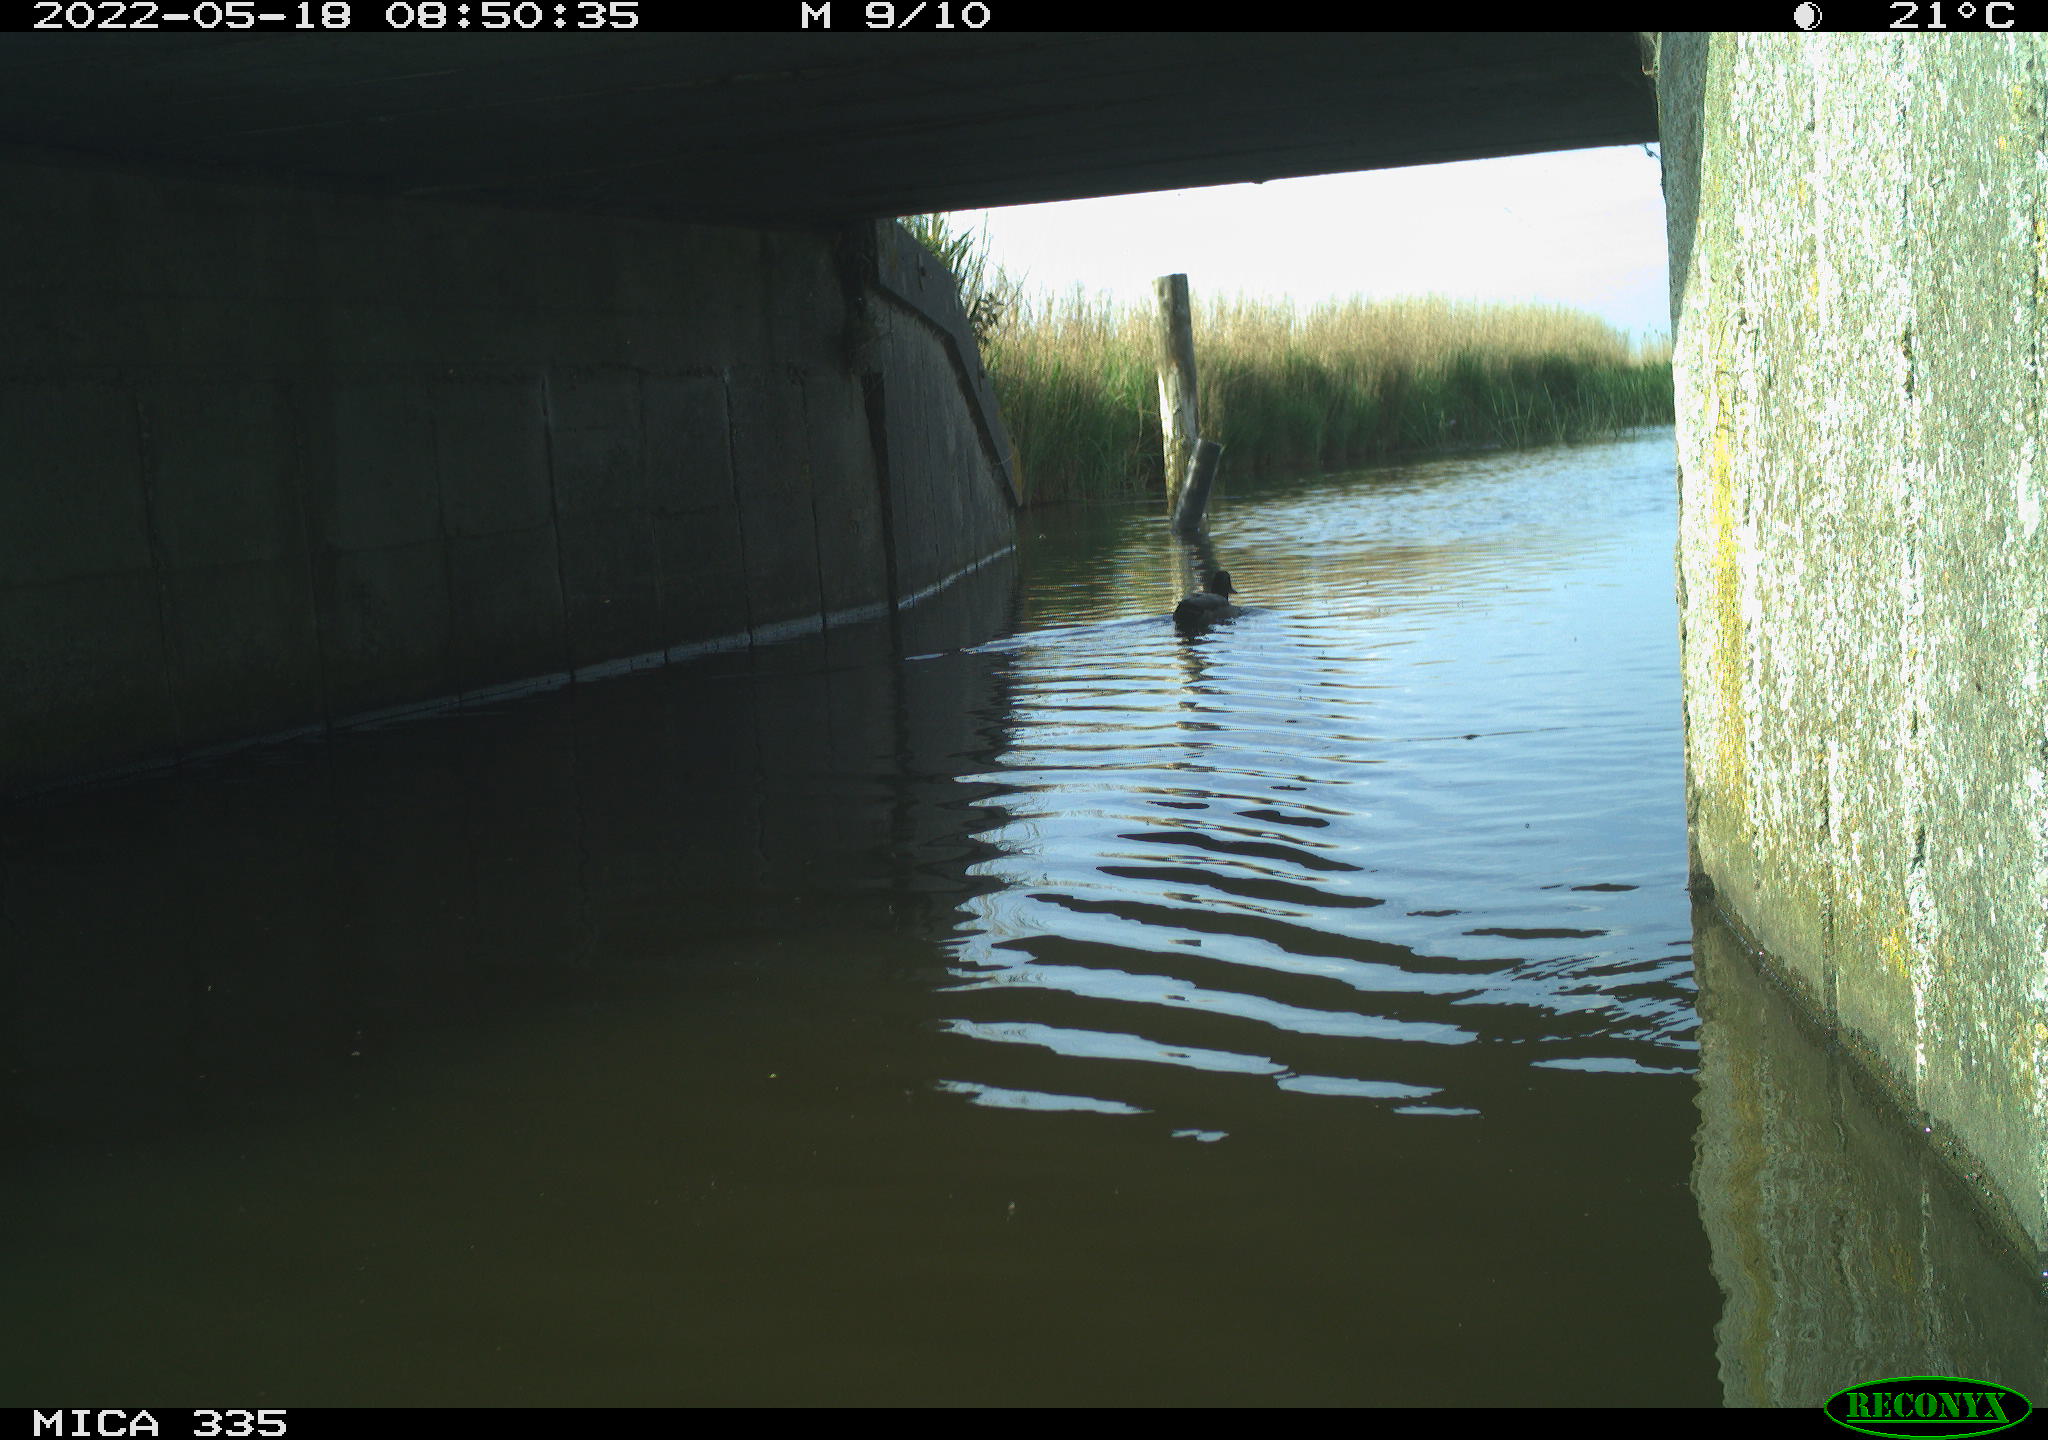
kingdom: Animalia
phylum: Chordata
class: Aves
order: Anseriformes
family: Anatidae
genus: Anas
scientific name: Anas platyrhynchos
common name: Mallard
